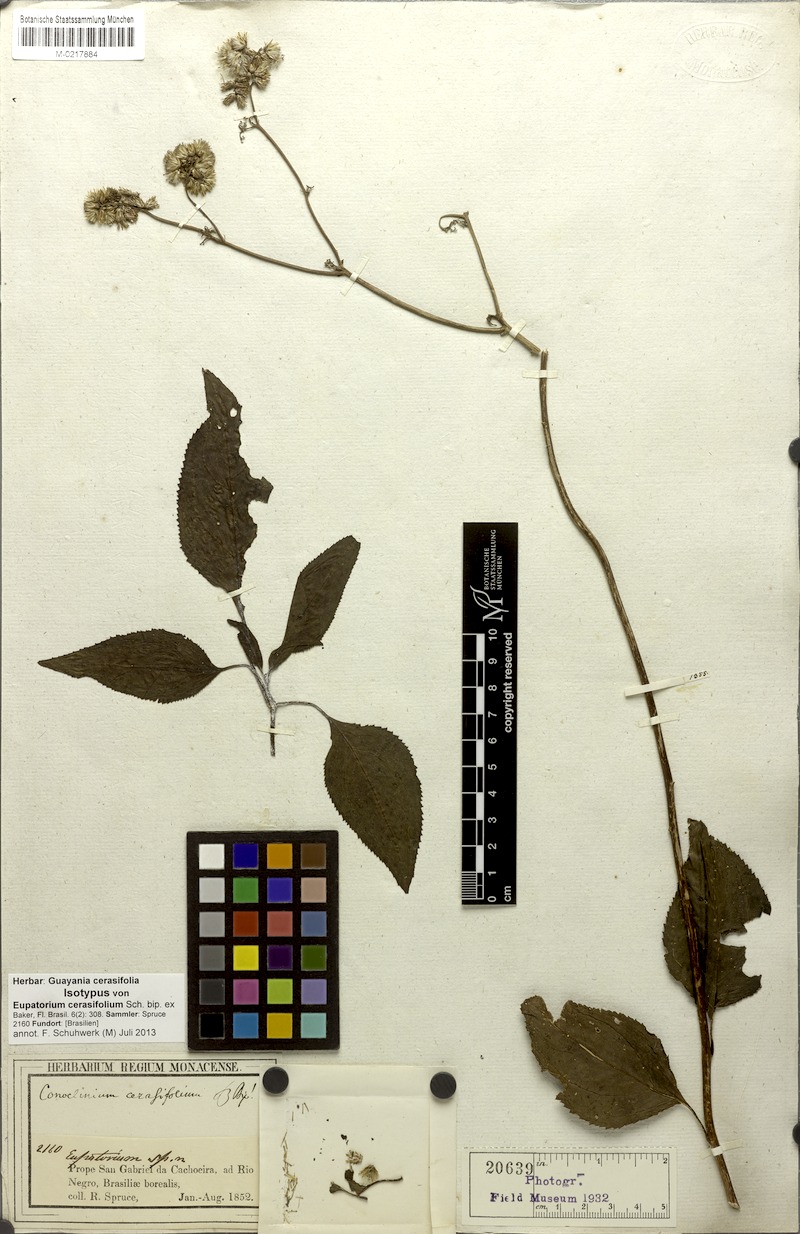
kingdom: Plantae
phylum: Tracheophyta
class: Magnoliopsida
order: Asterales
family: Asteraceae
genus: Guayania
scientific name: Guayania cerasifolia
